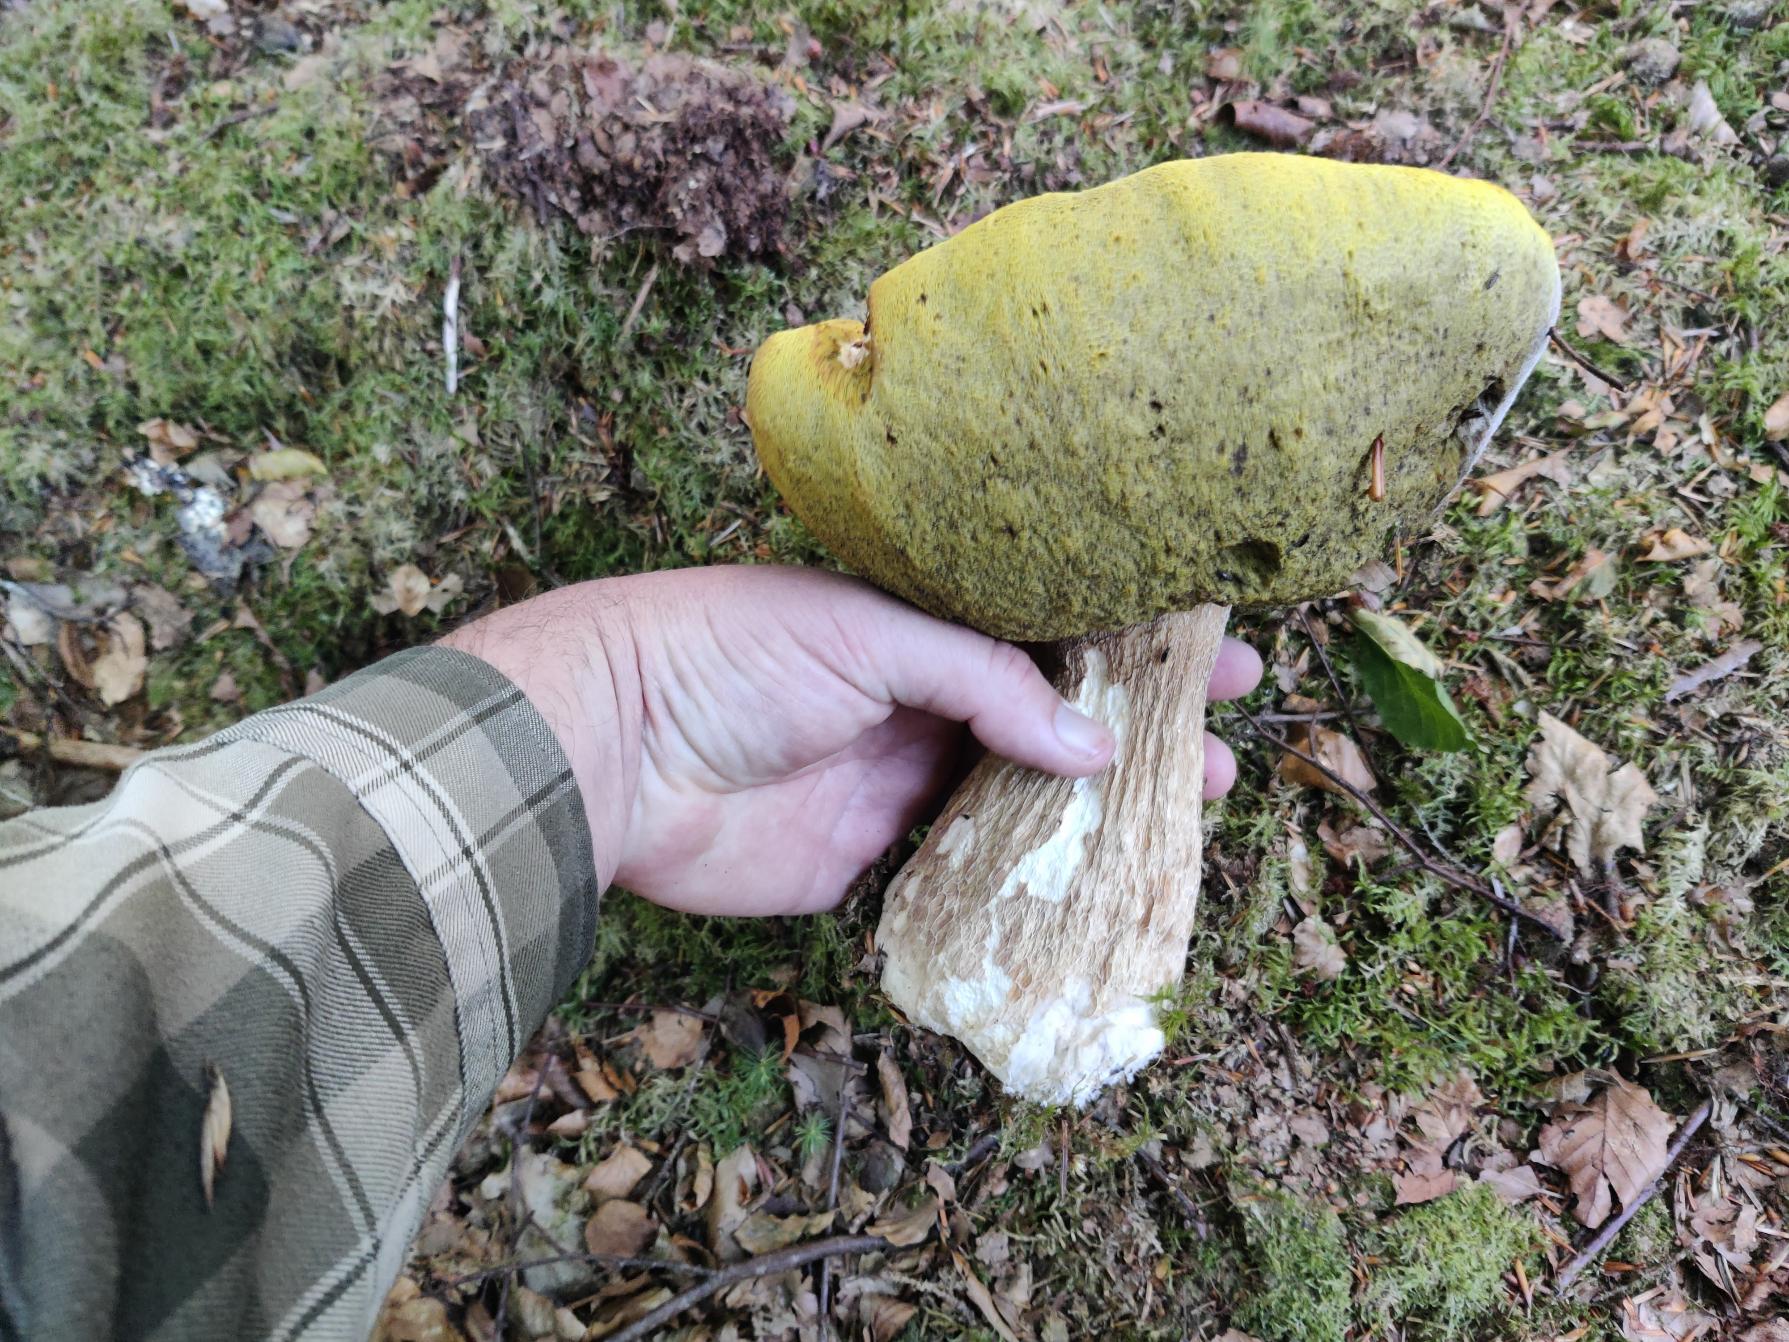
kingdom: Fungi
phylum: Basidiomycota
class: Agaricomycetes
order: Boletales
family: Boletaceae
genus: Boletus
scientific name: Boletus edulis
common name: Spiselig rørhat/karl johan
